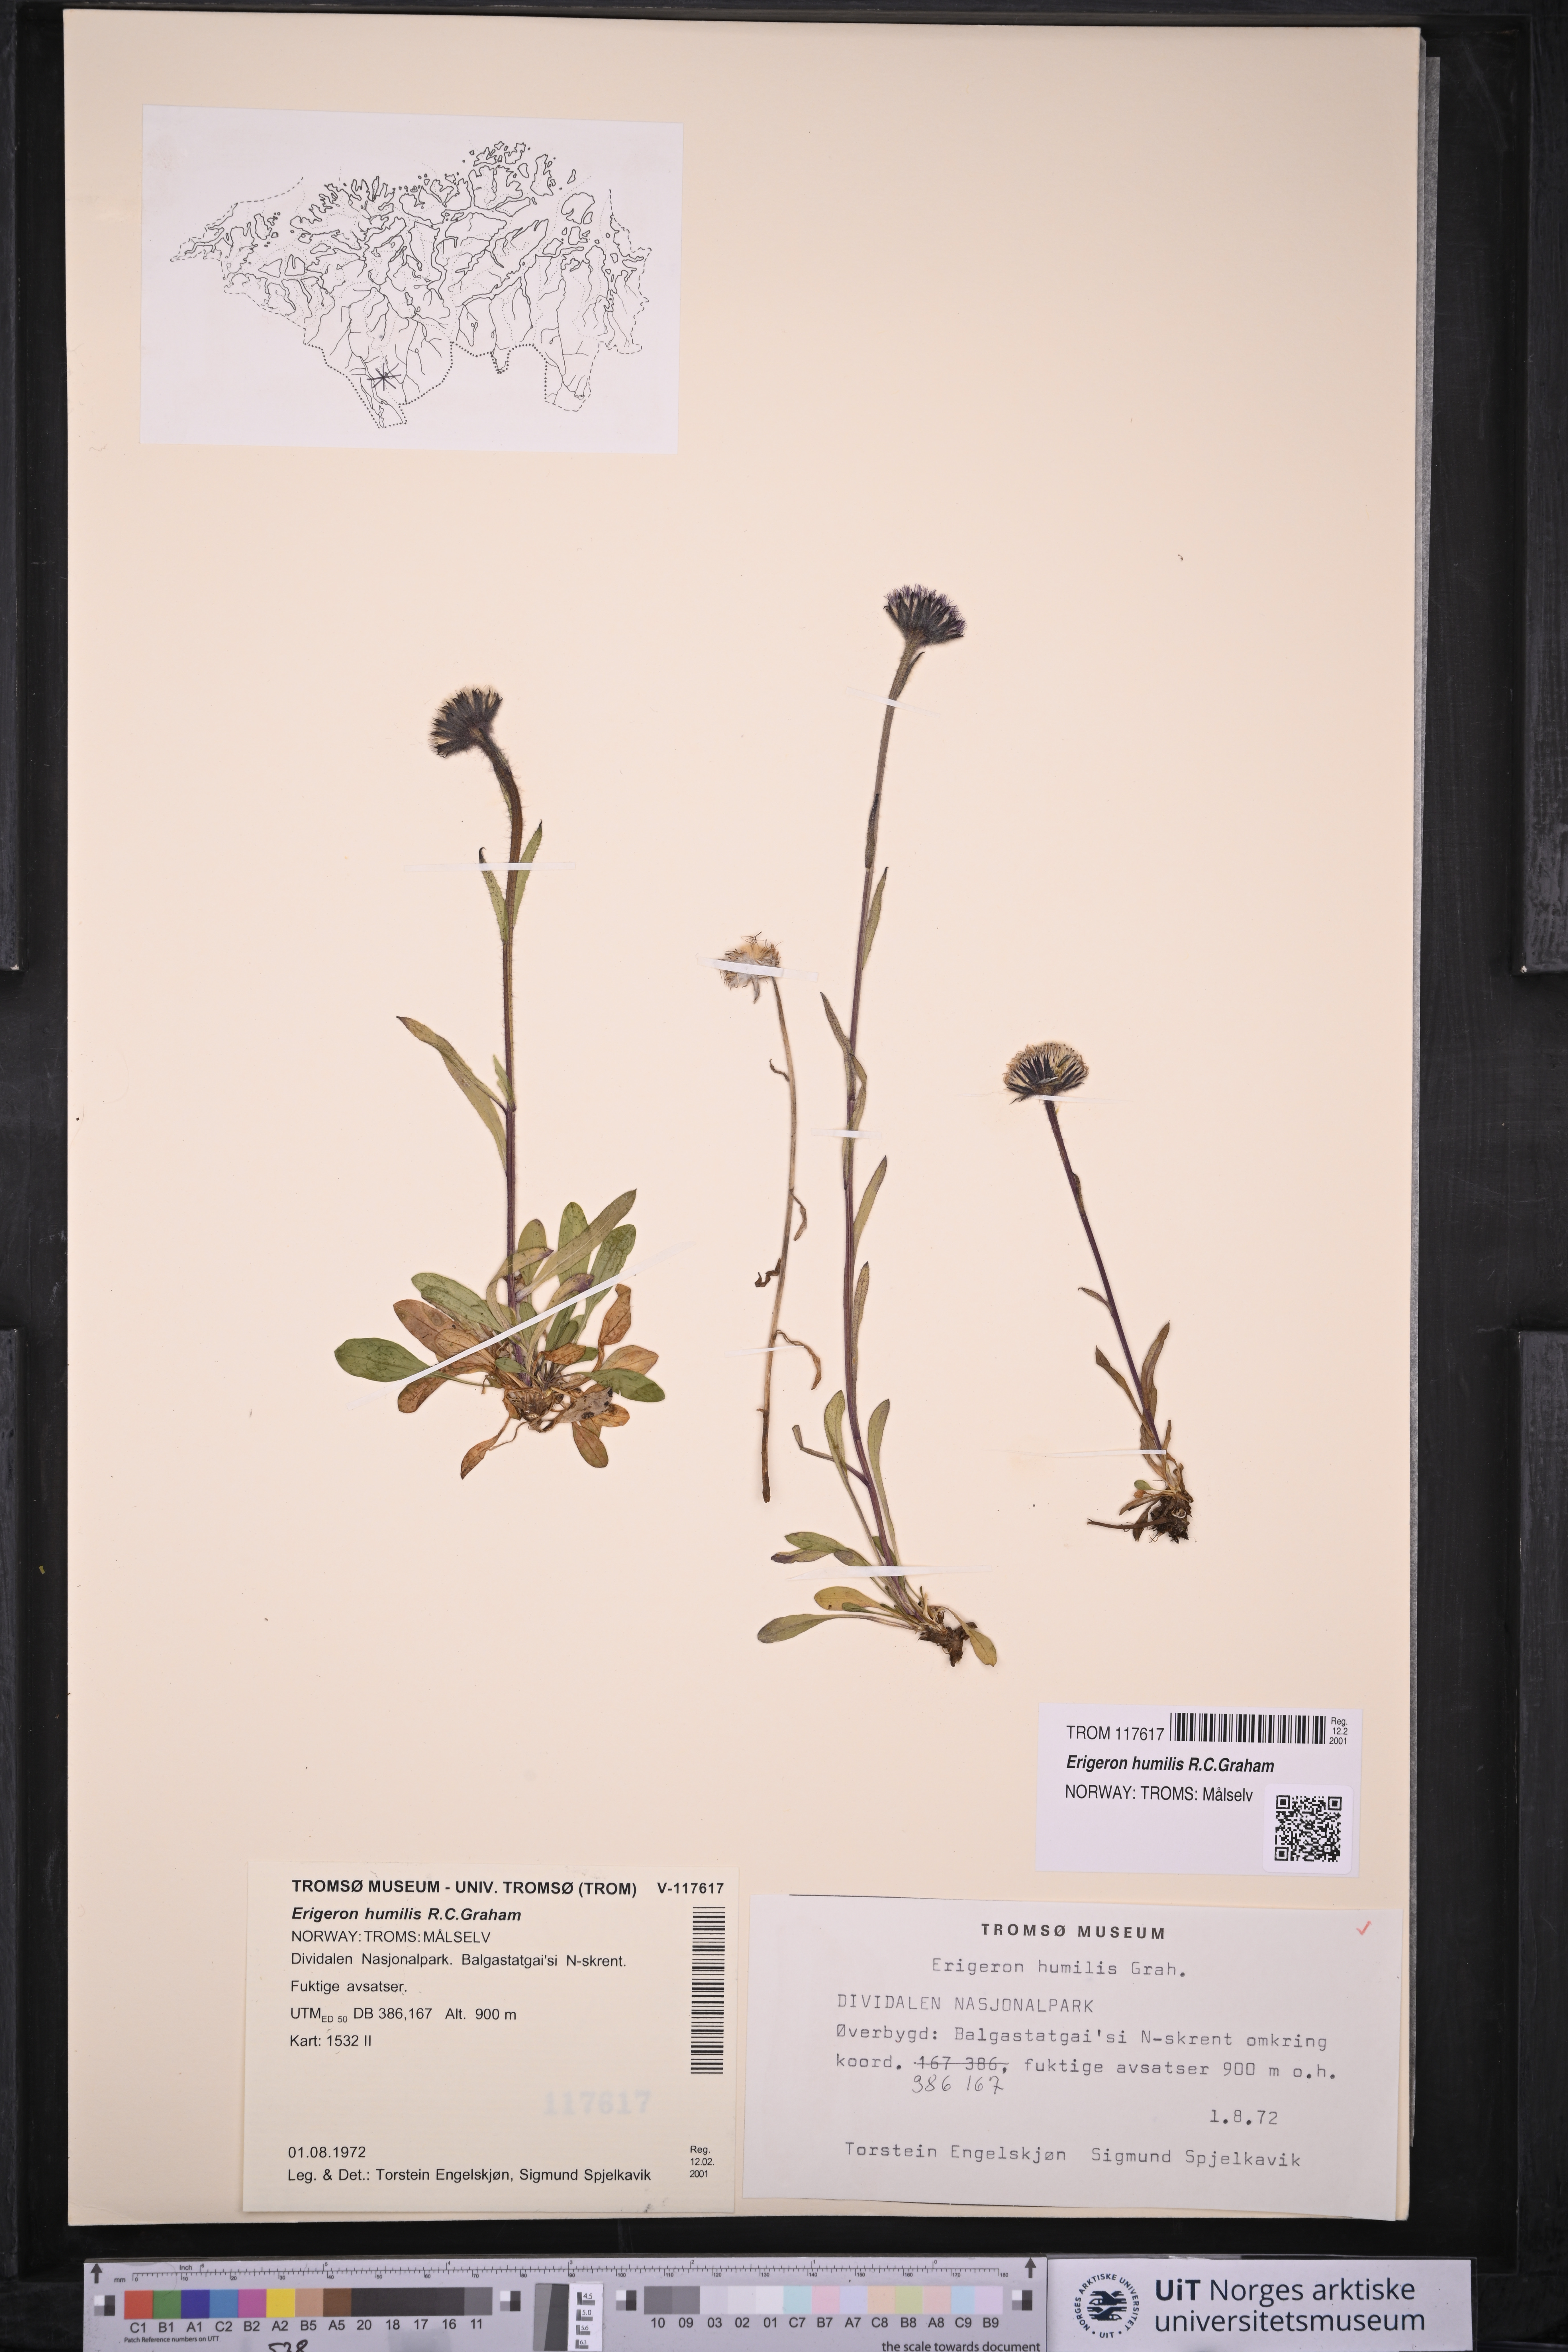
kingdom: Plantae
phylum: Tracheophyta
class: Magnoliopsida
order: Asterales
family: Asteraceae
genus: Erigeron
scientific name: Erigeron humilis
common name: Arctic-alpine fleabane
